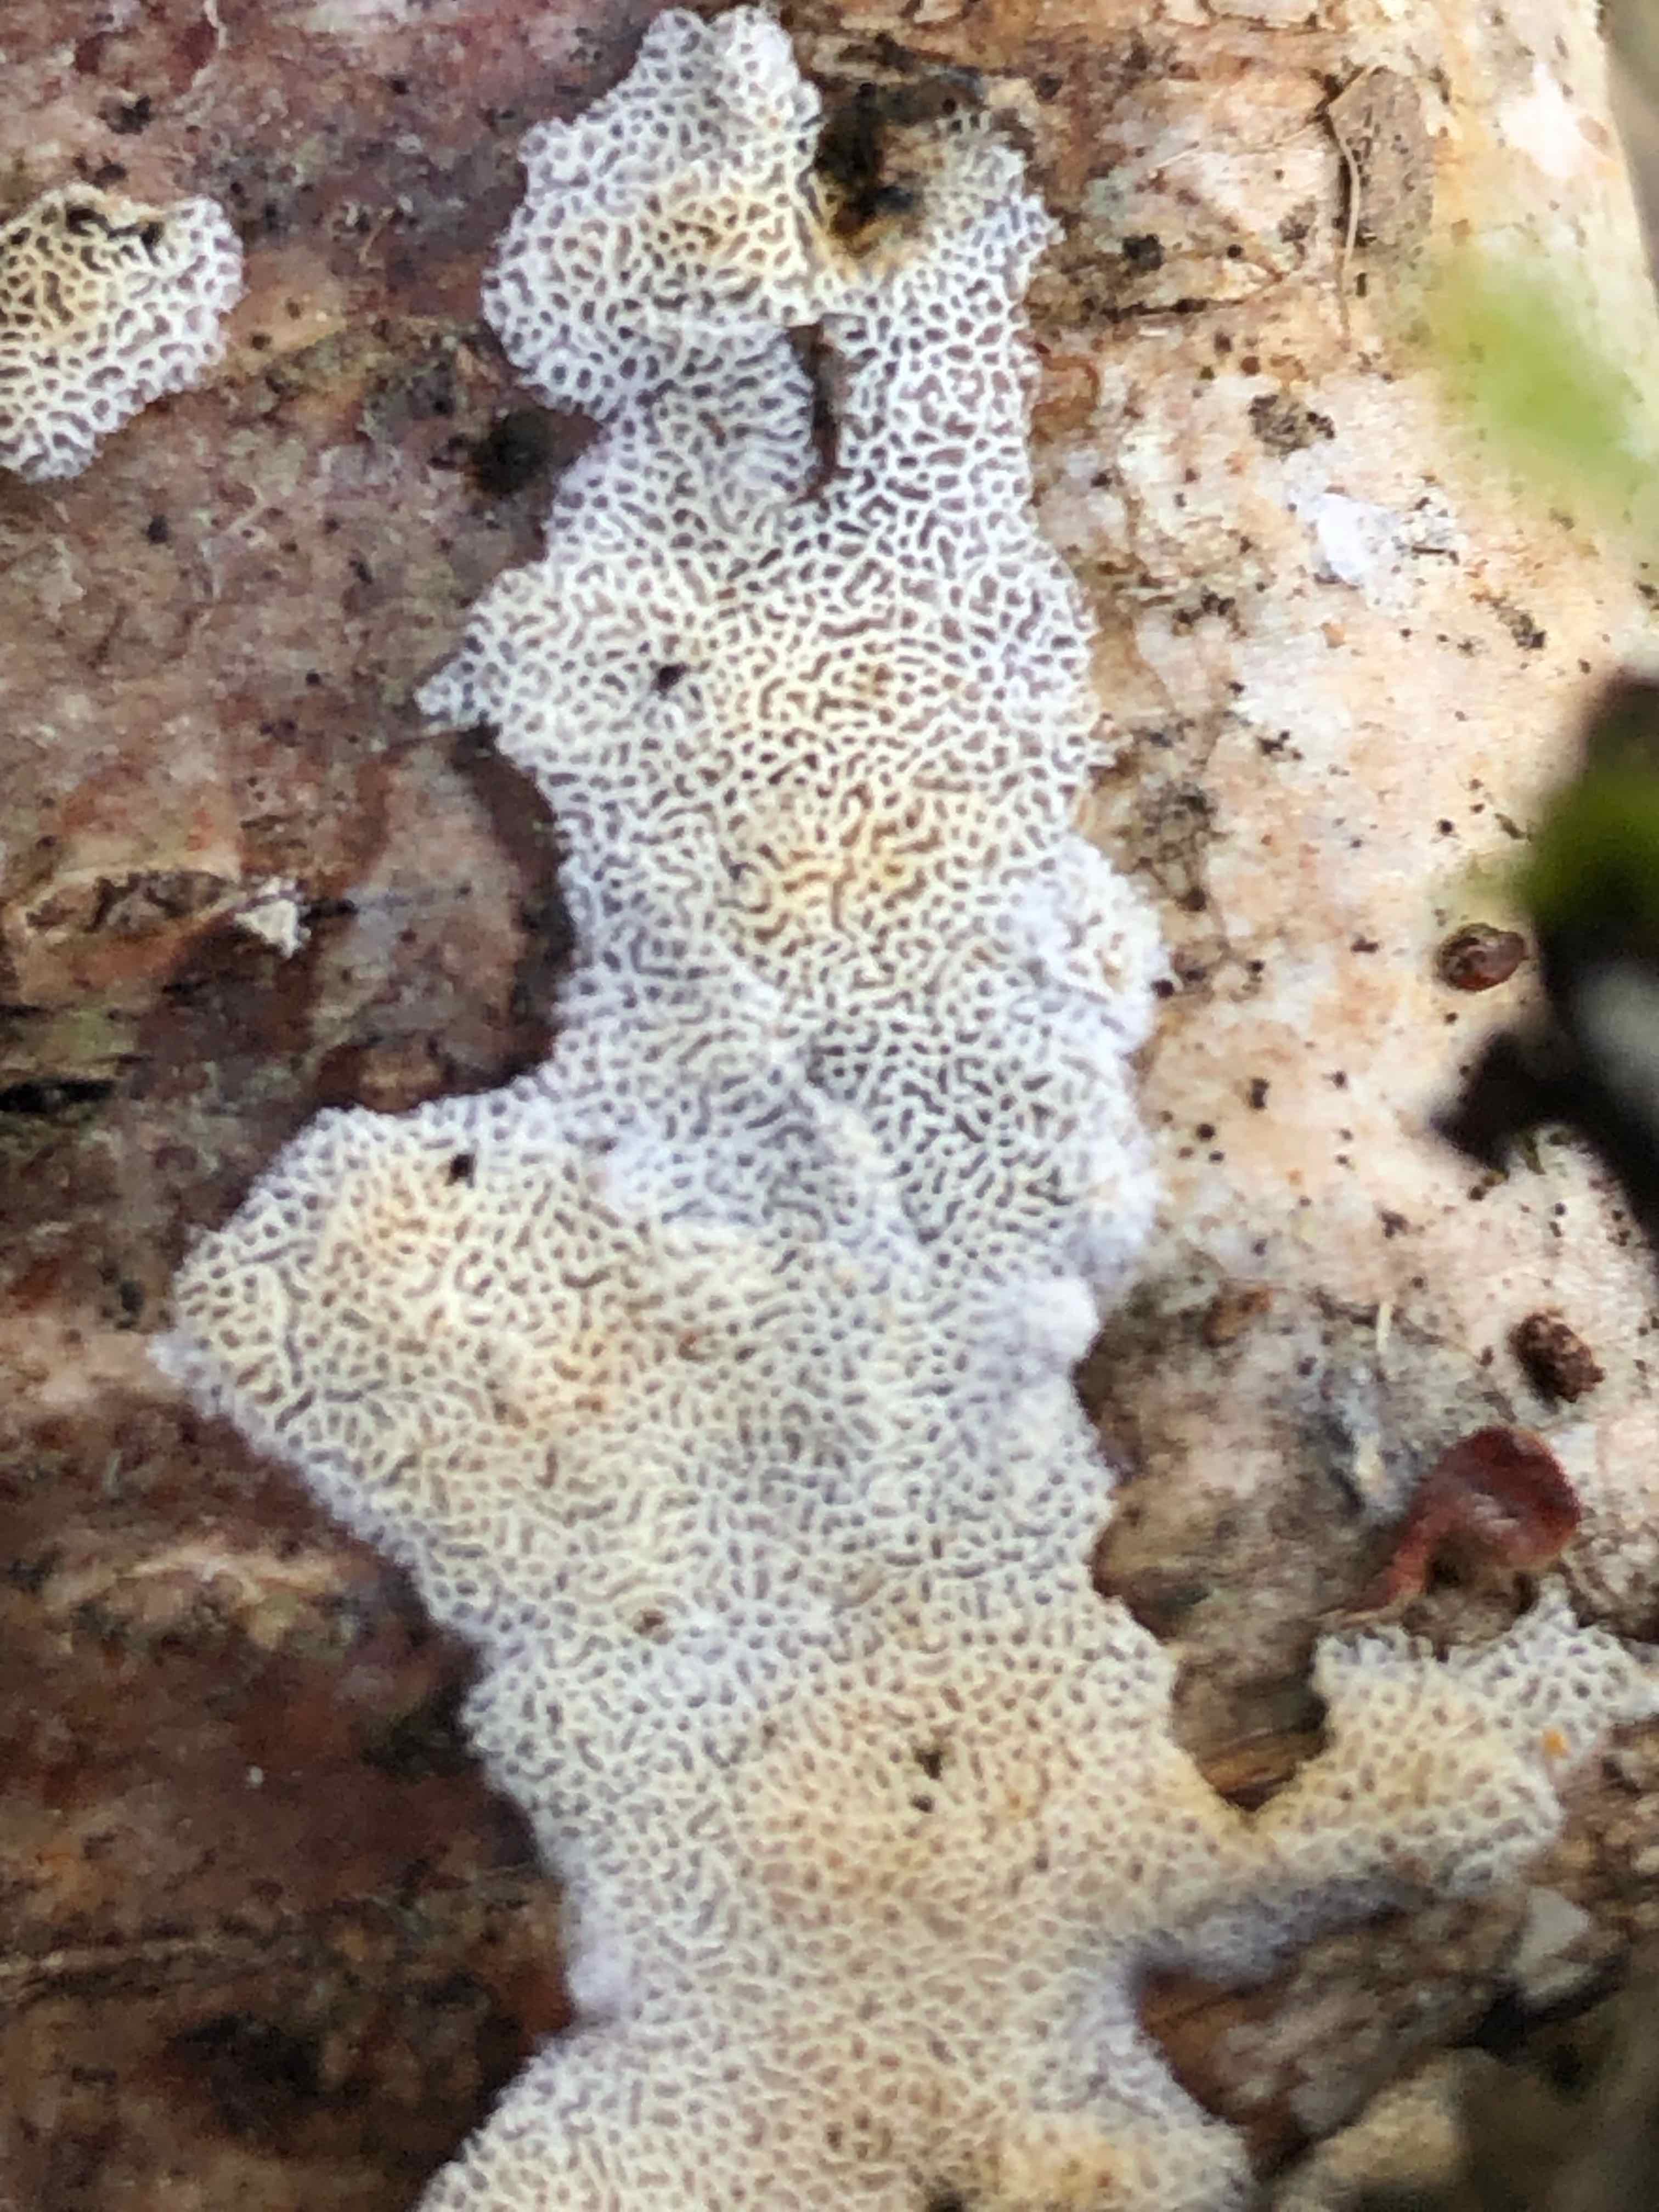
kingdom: Fungi
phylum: Basidiomycota
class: Agaricomycetes
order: Hymenochaetales
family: Schizoporaceae
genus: Xylodon
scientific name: Xylodon subtropicus
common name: labyrint-tandsvamp
